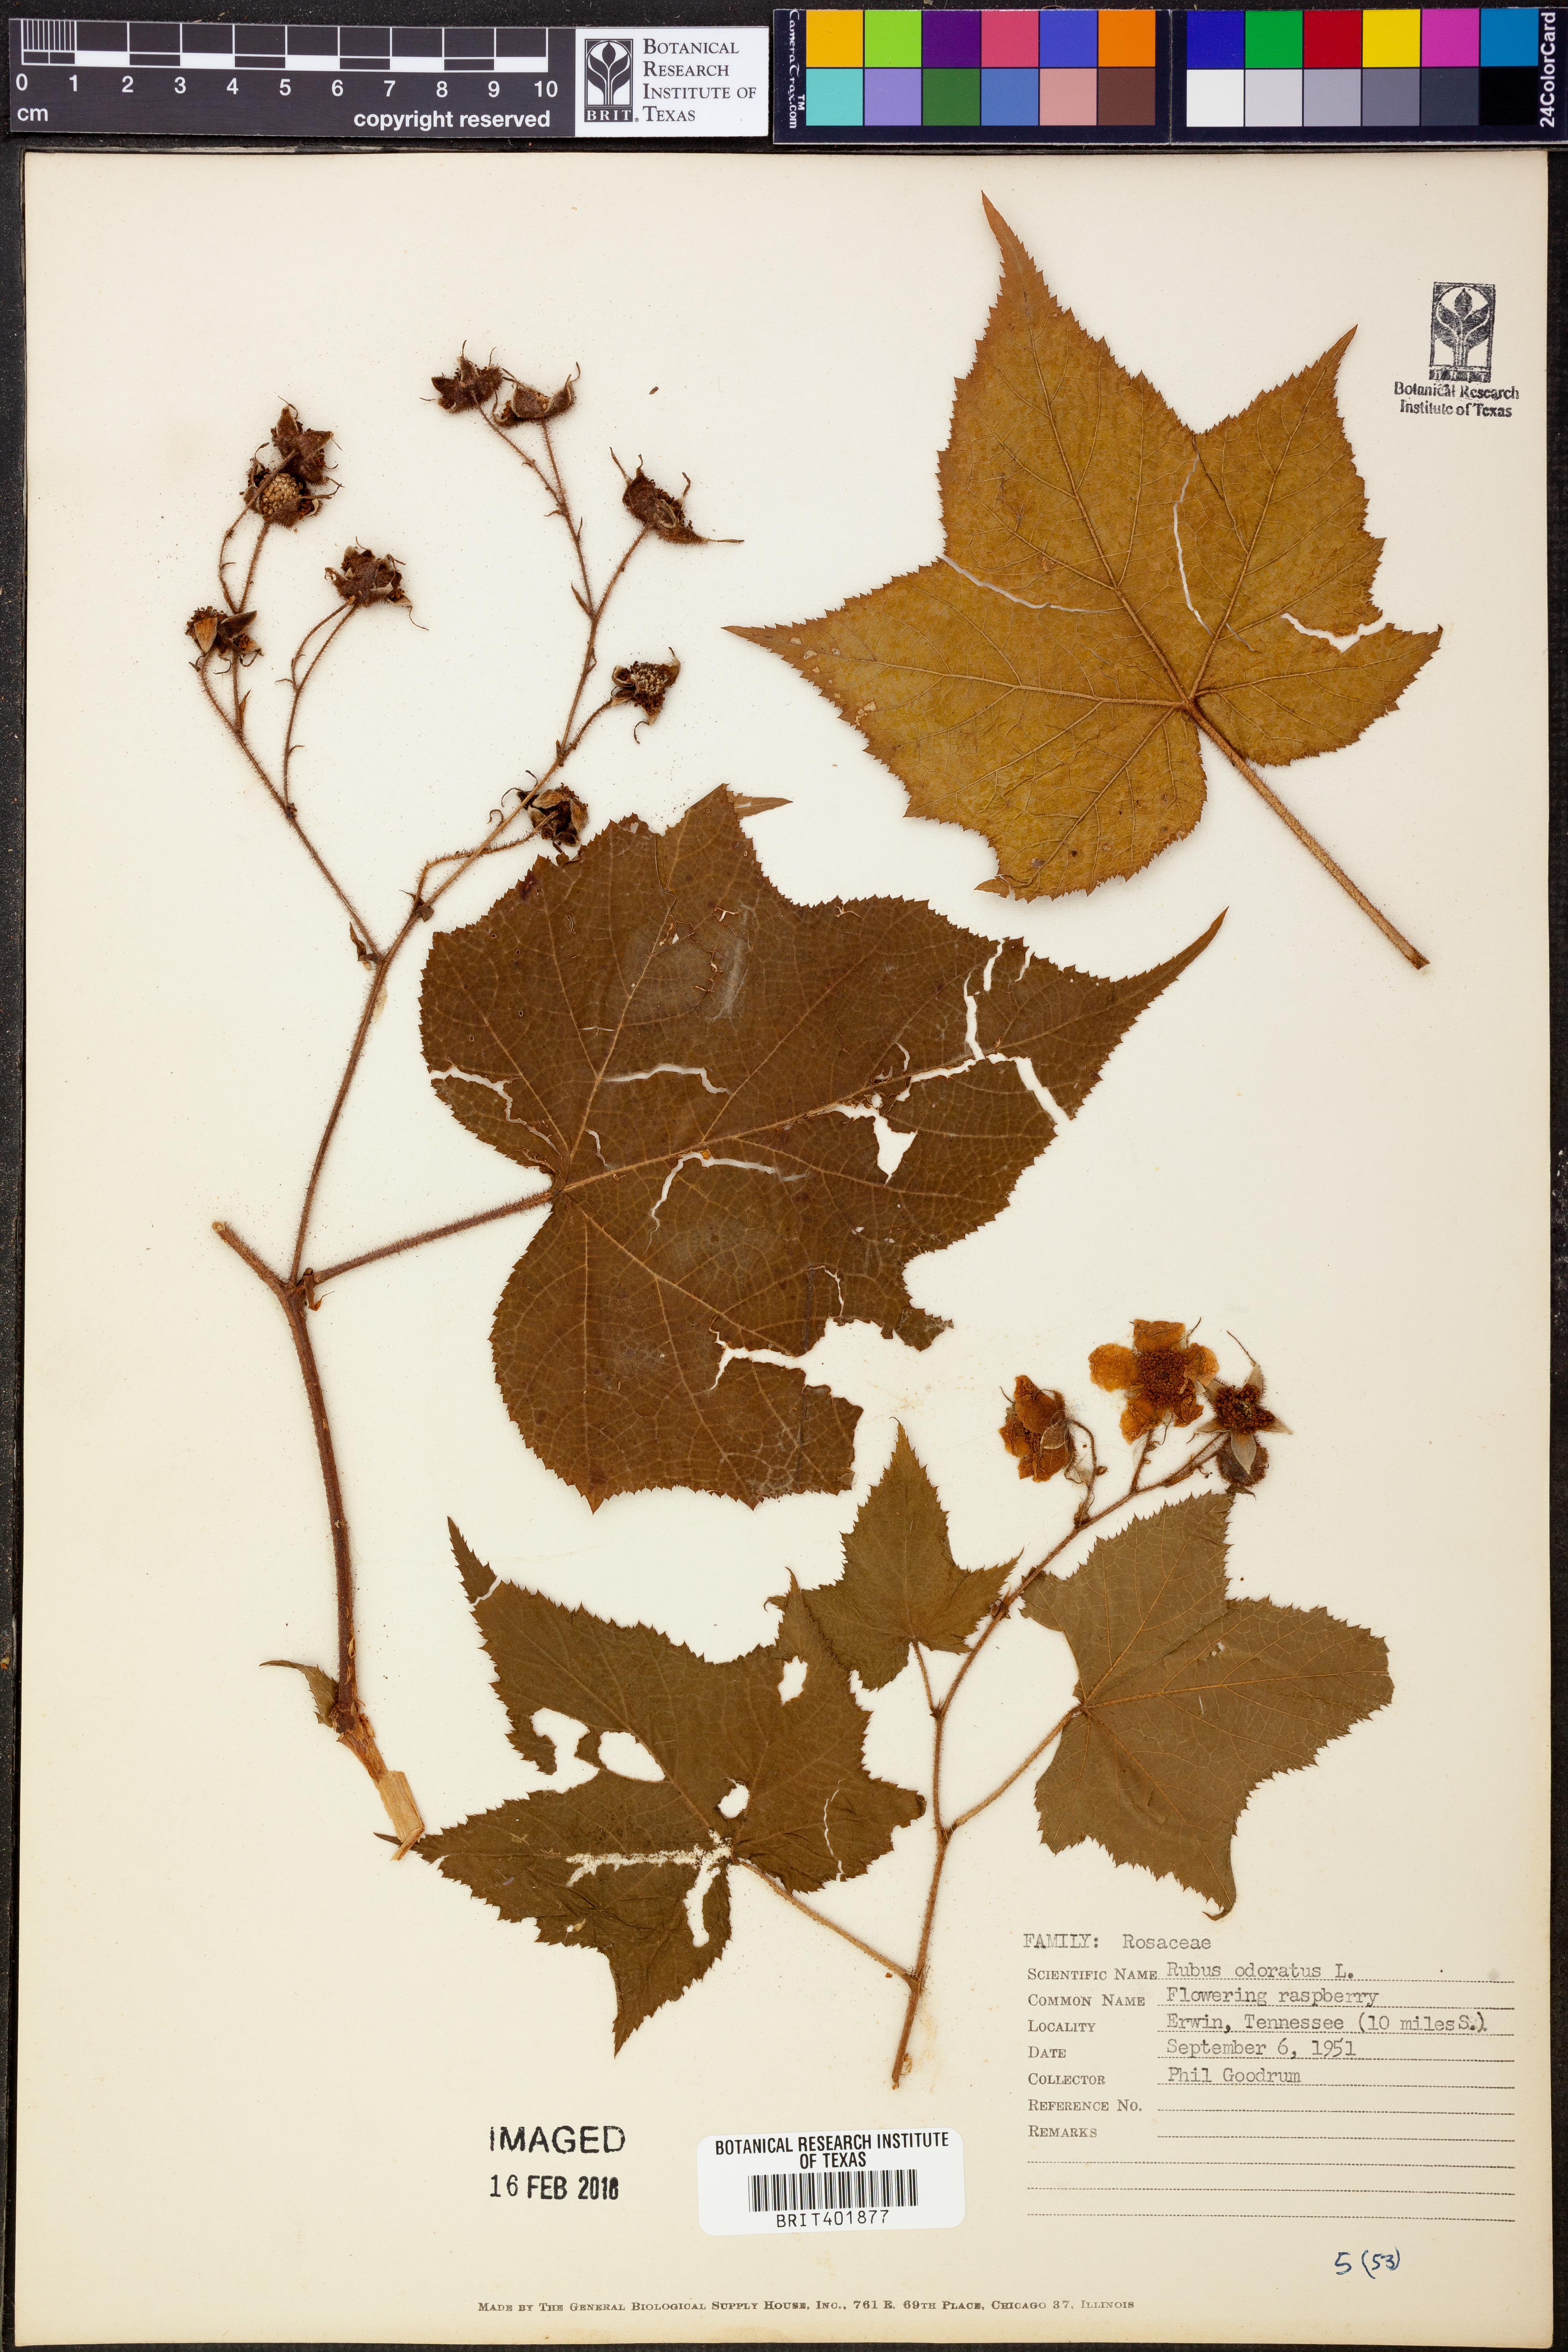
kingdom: Plantae
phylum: Tracheophyta
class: Magnoliopsida
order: Rosales
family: Rosaceae
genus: Rubus
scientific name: Rubus odoratus
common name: Purple-flowered raspberry
